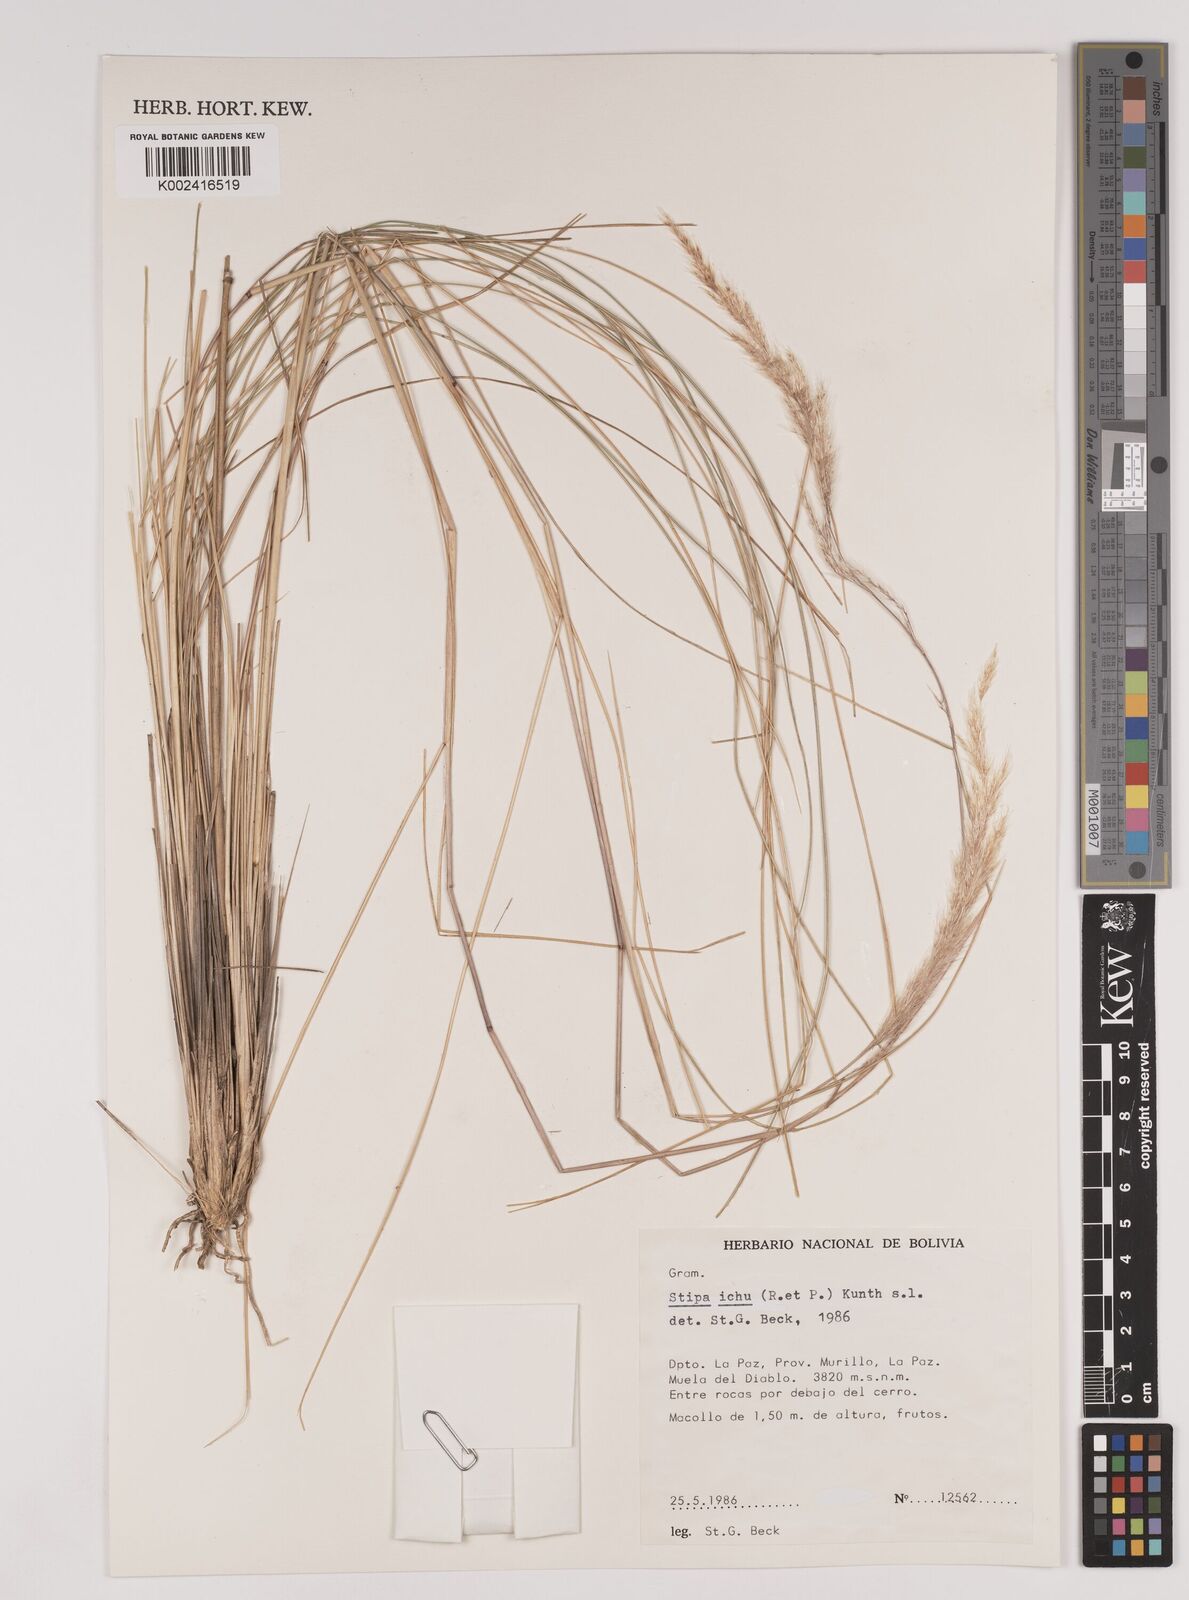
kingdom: Plantae
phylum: Tracheophyta
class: Liliopsida
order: Poales
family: Poaceae
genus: Jarava
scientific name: Jarava ichu
